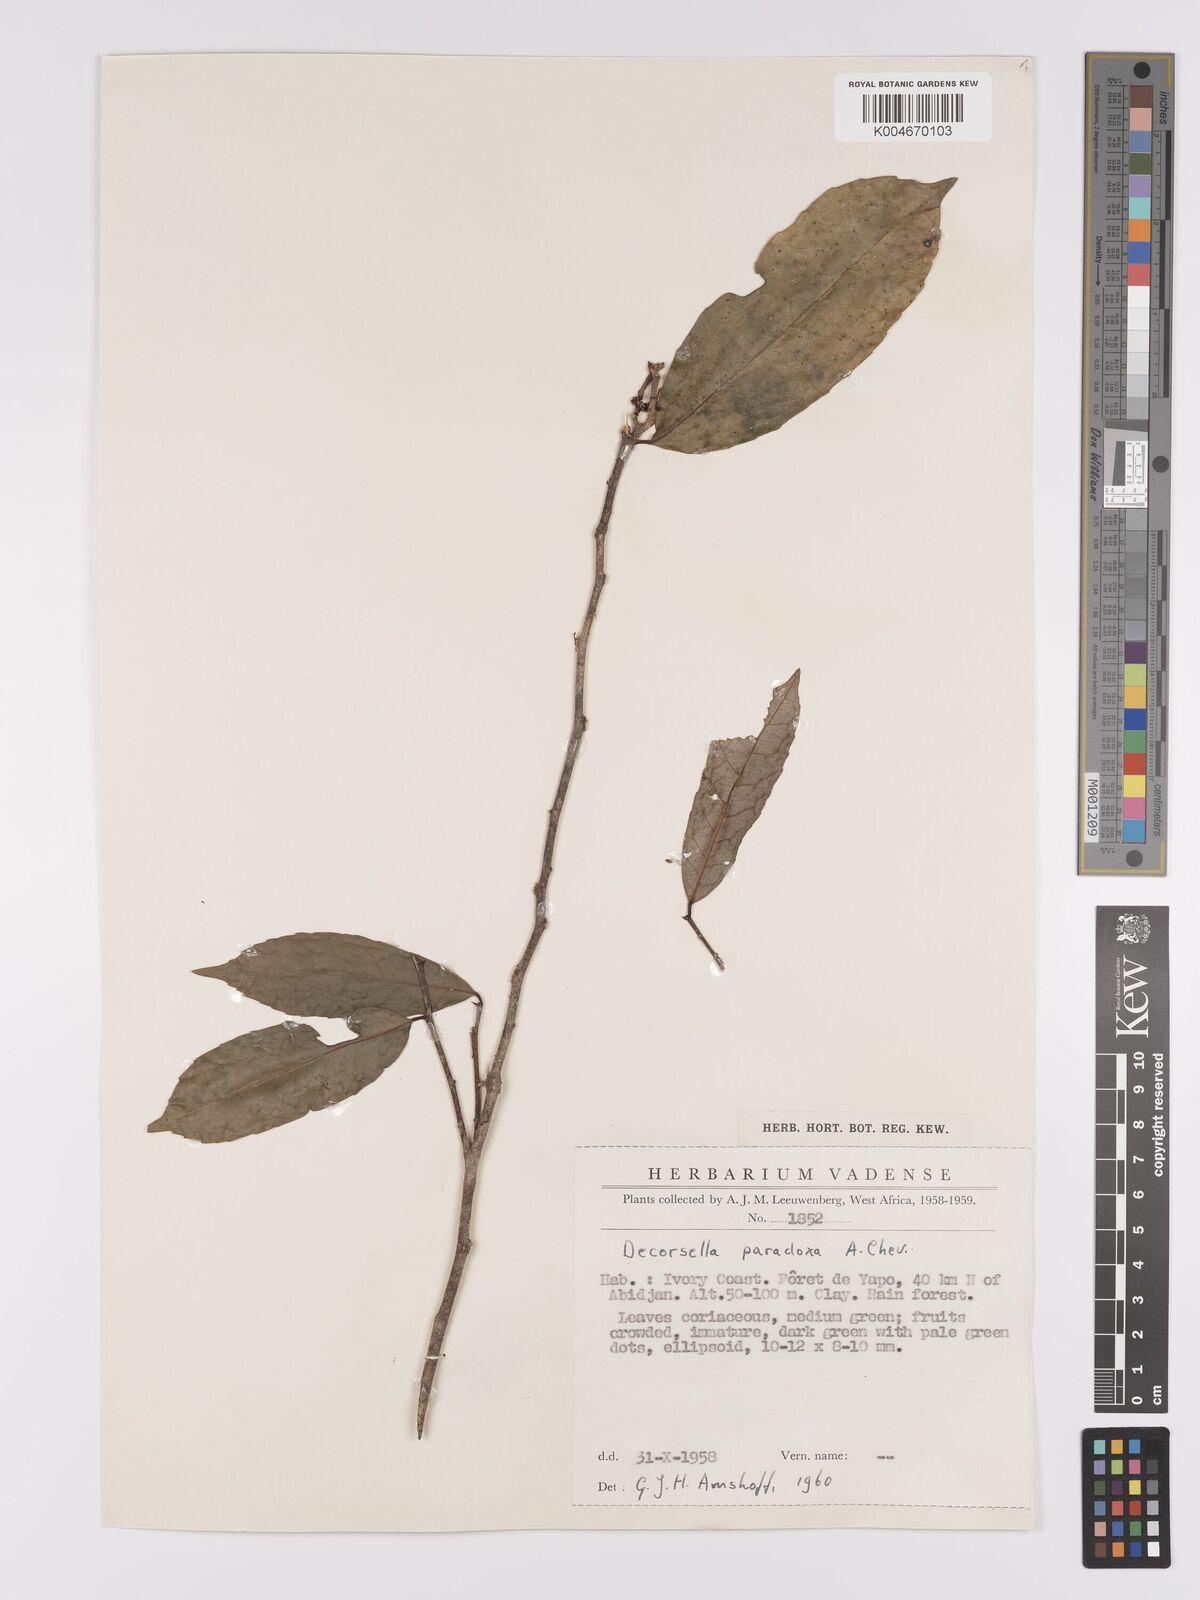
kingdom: Plantae
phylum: Tracheophyta
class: Magnoliopsida
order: Malpighiales
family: Violaceae
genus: Decorsella
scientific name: Decorsella paradoxa
